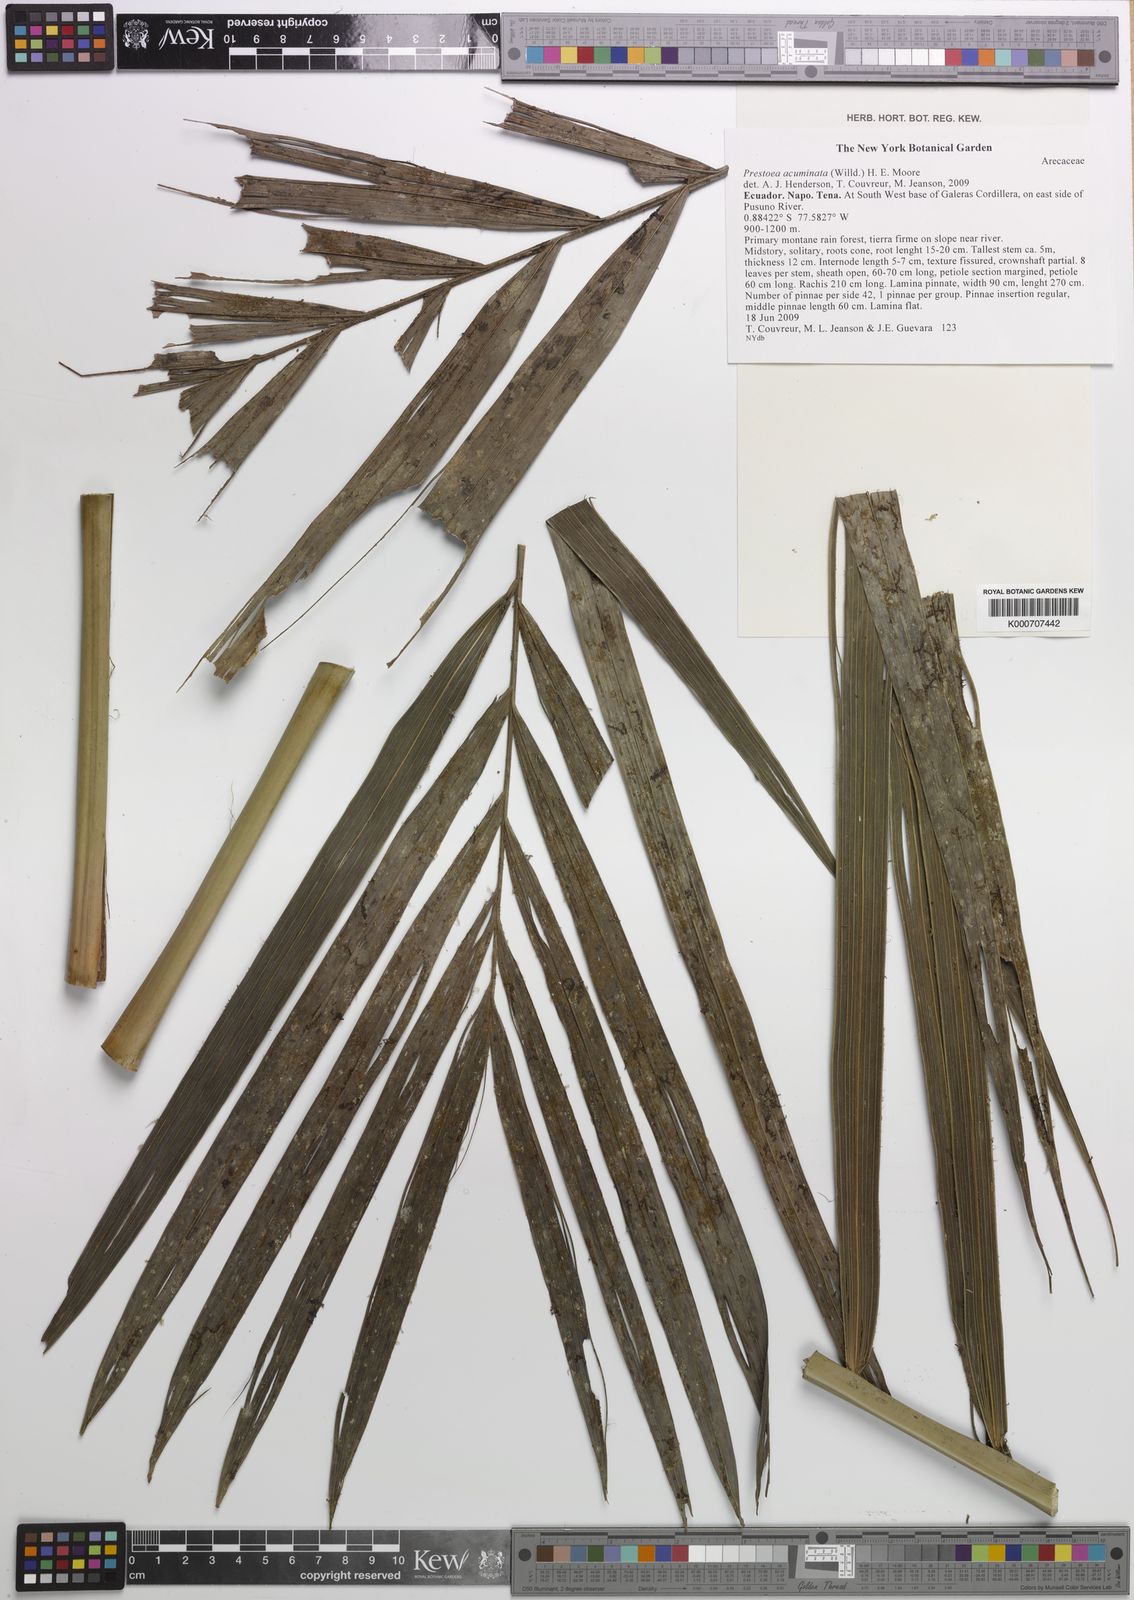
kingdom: Plantae
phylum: Tracheophyta
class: Liliopsida
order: Arecales
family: Arecaceae
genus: Prestoea
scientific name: Prestoea acuminata
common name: Sierran palm
